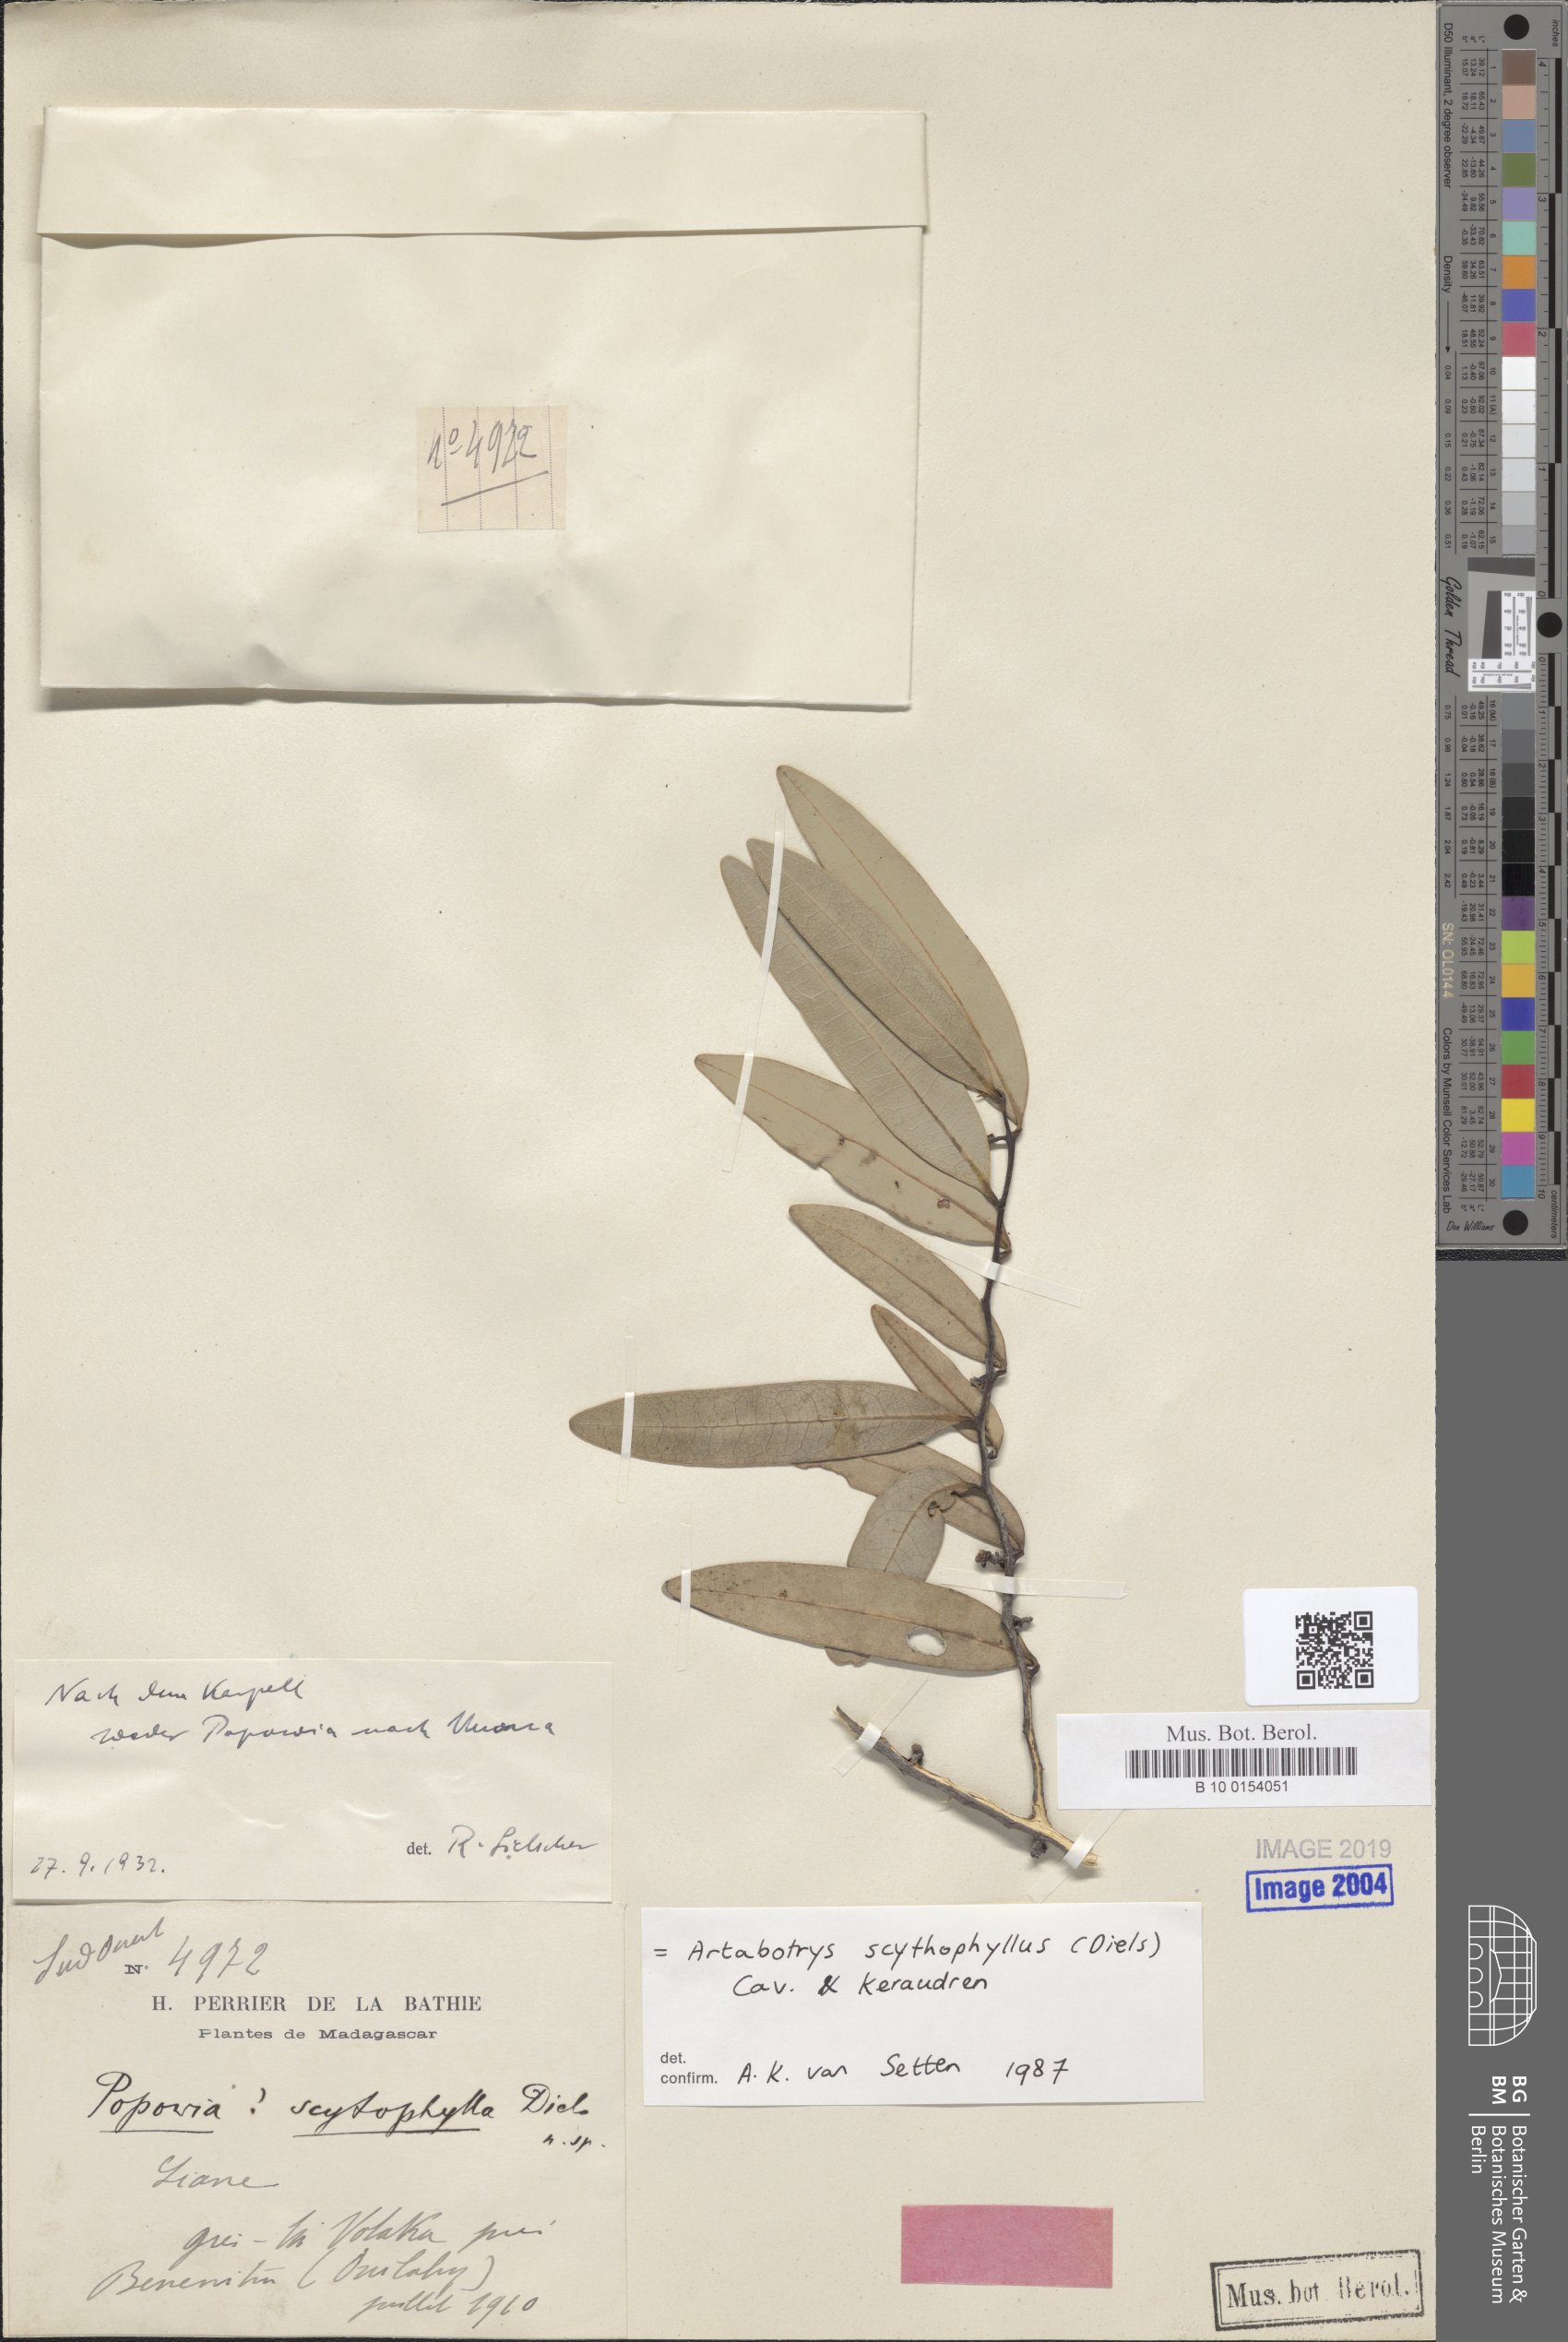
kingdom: Plantae
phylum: Tracheophyta
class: Magnoliopsida
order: Magnoliales
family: Annonaceae
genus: Artabotrys
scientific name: Artabotrys scytophyllus
